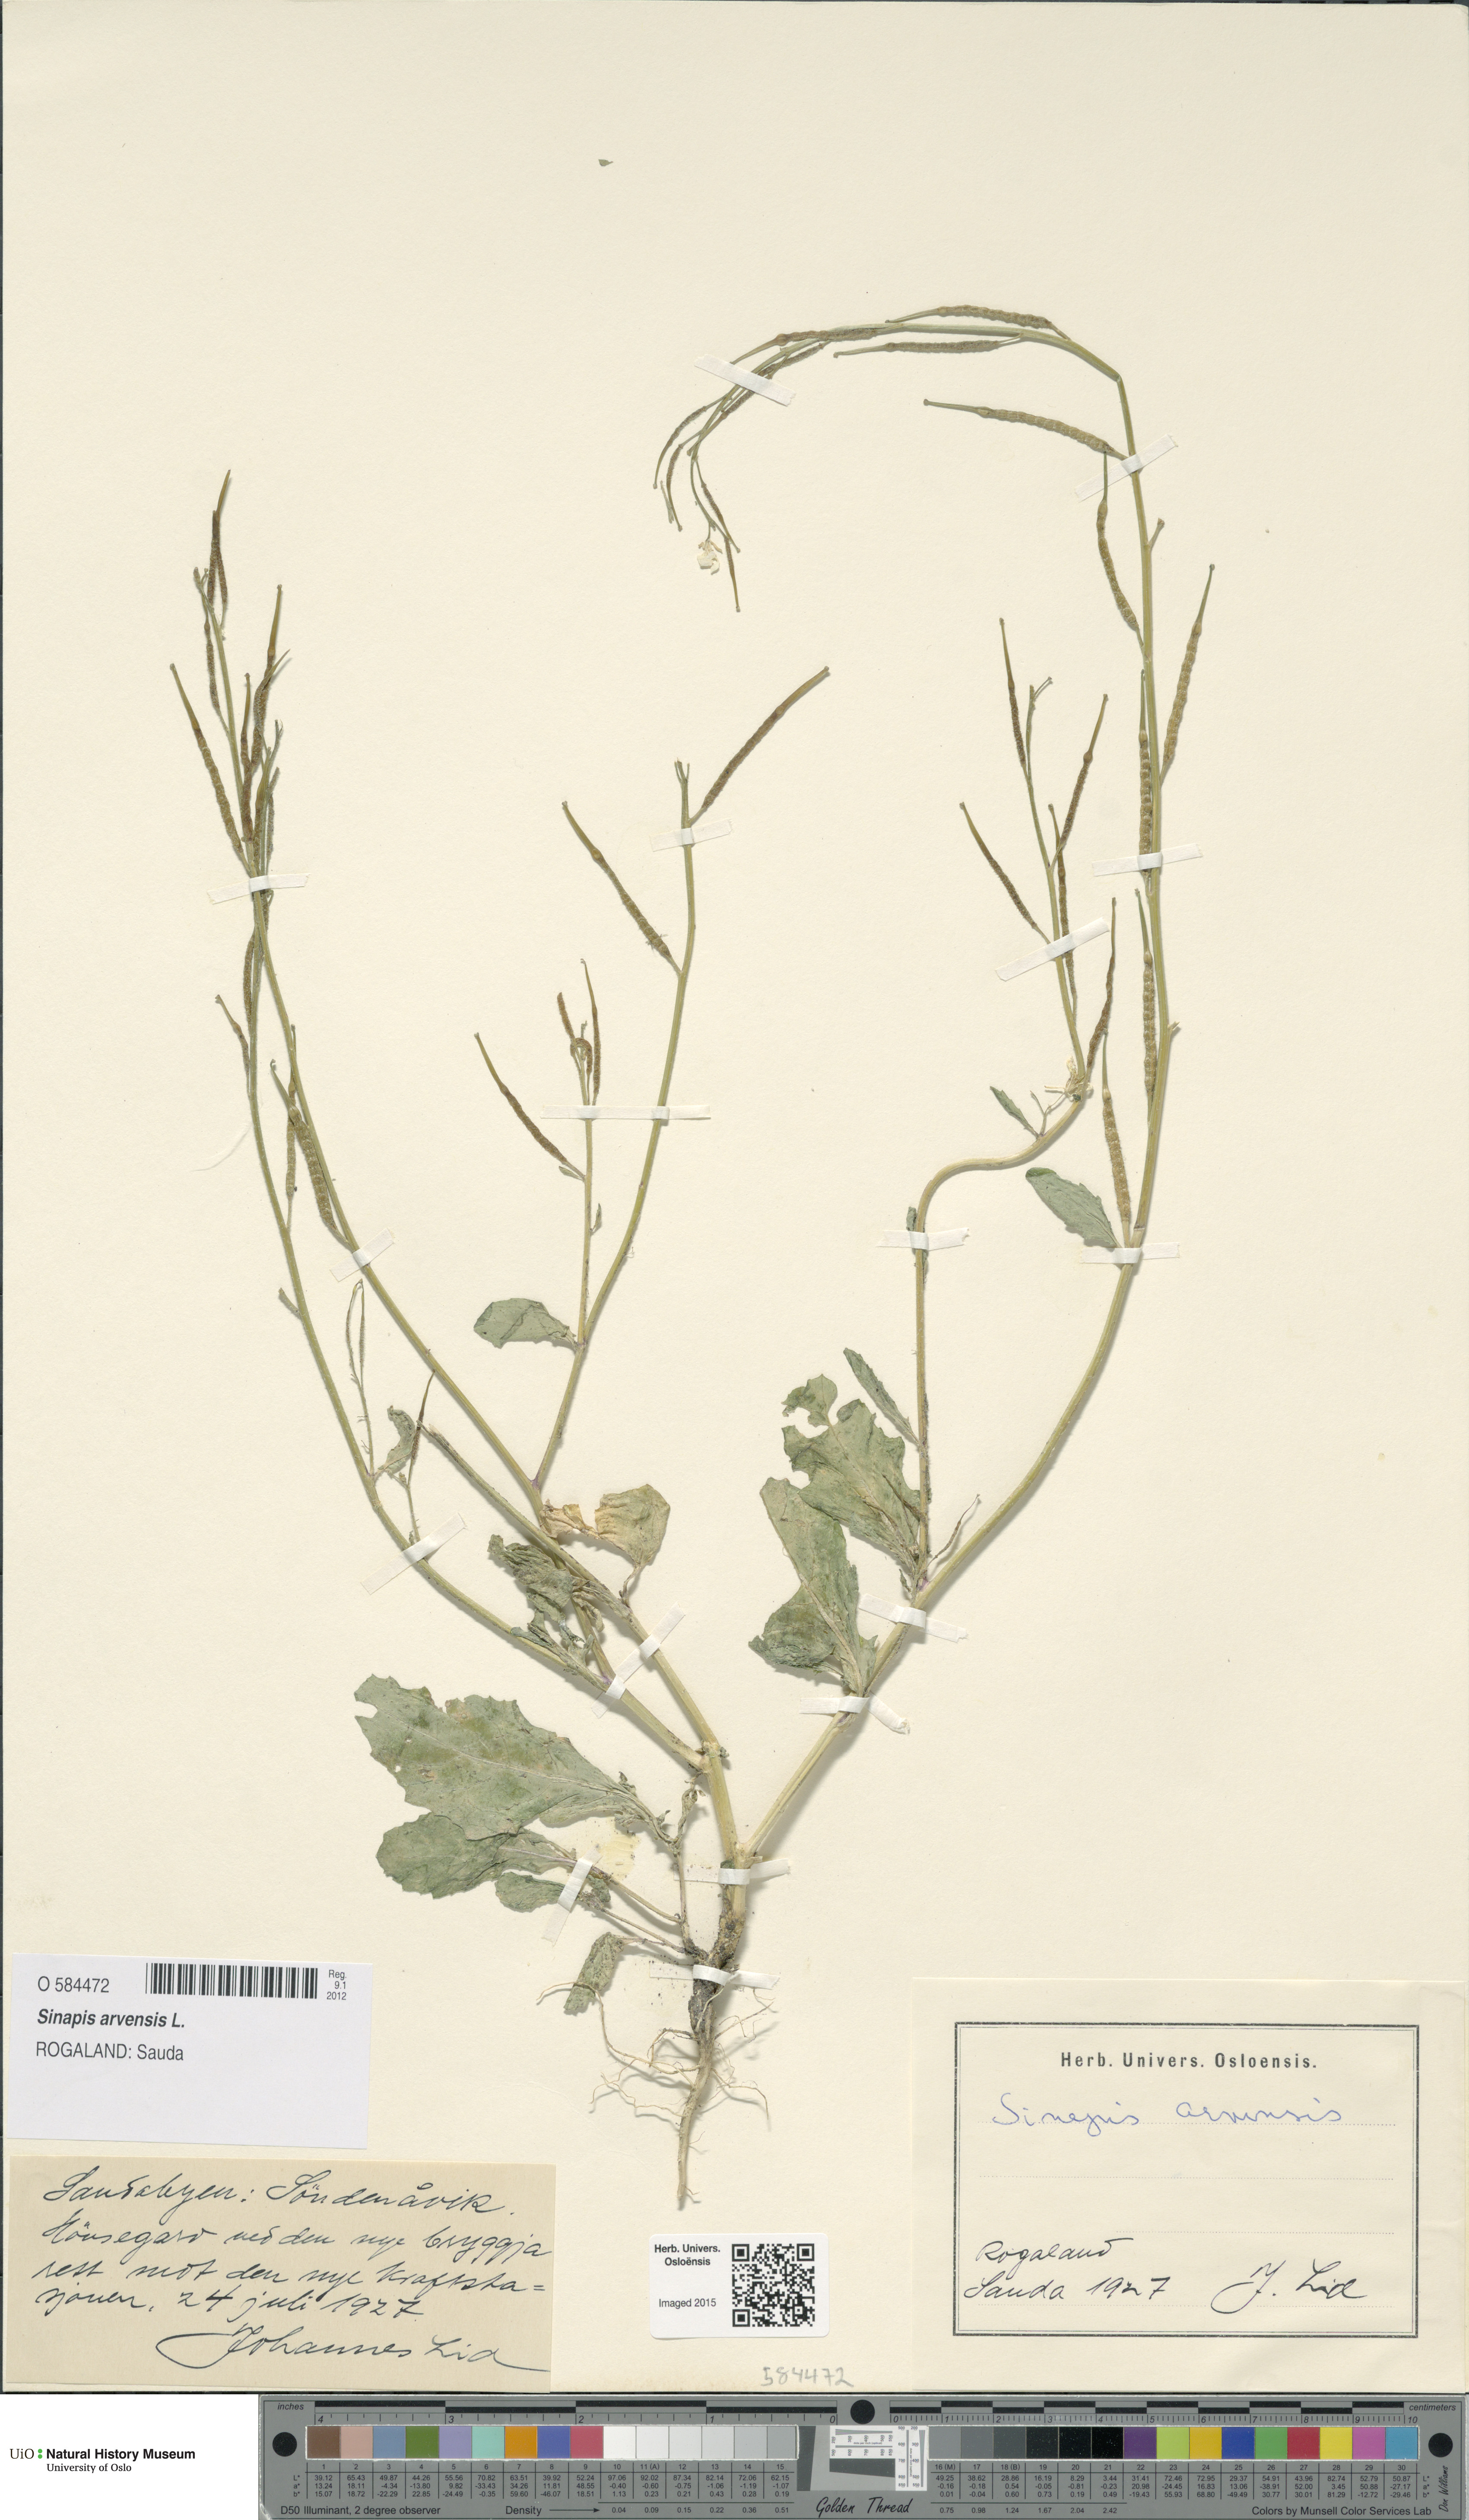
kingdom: Plantae
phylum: Tracheophyta
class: Magnoliopsida
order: Brassicales
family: Brassicaceae
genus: Sinapis
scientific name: Sinapis arvensis
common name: Charlock
